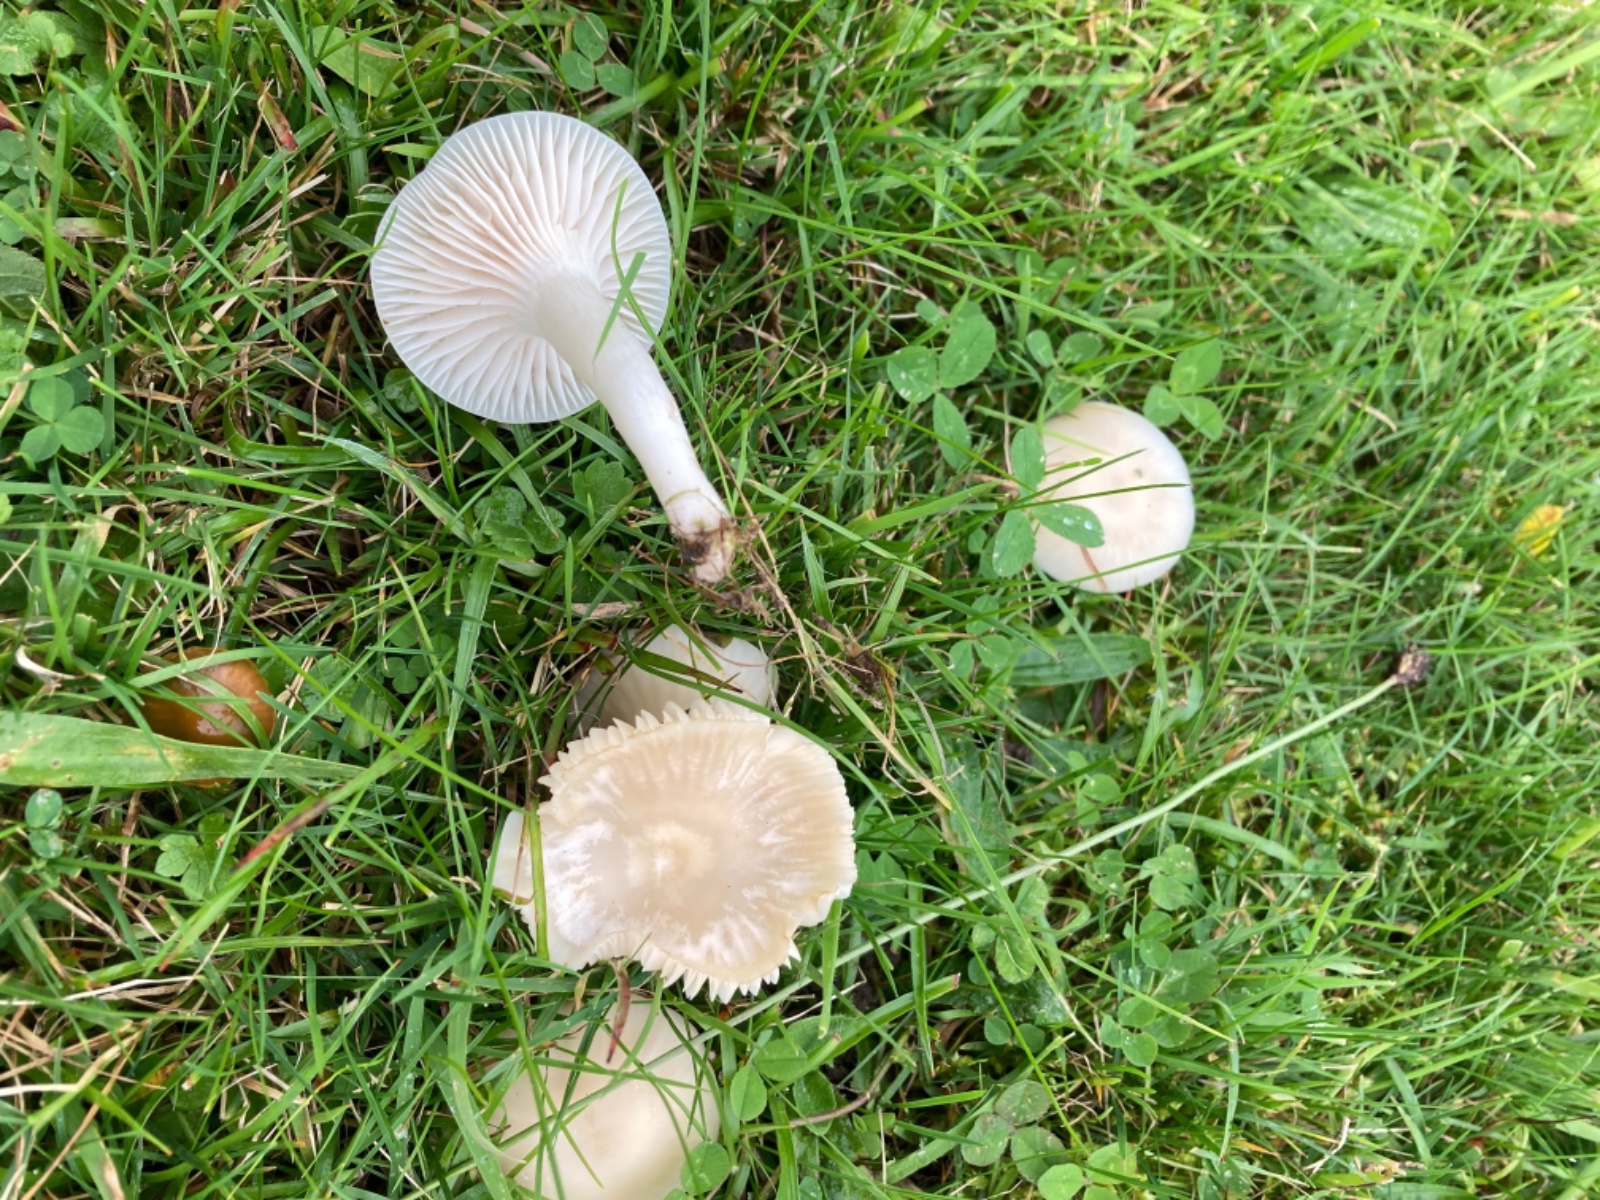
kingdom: Fungi
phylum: Basidiomycota
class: Agaricomycetes
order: Agaricales
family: Hygrophoraceae
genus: Cuphophyllus
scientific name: Cuphophyllus virgineus
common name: snehvid vokshat
